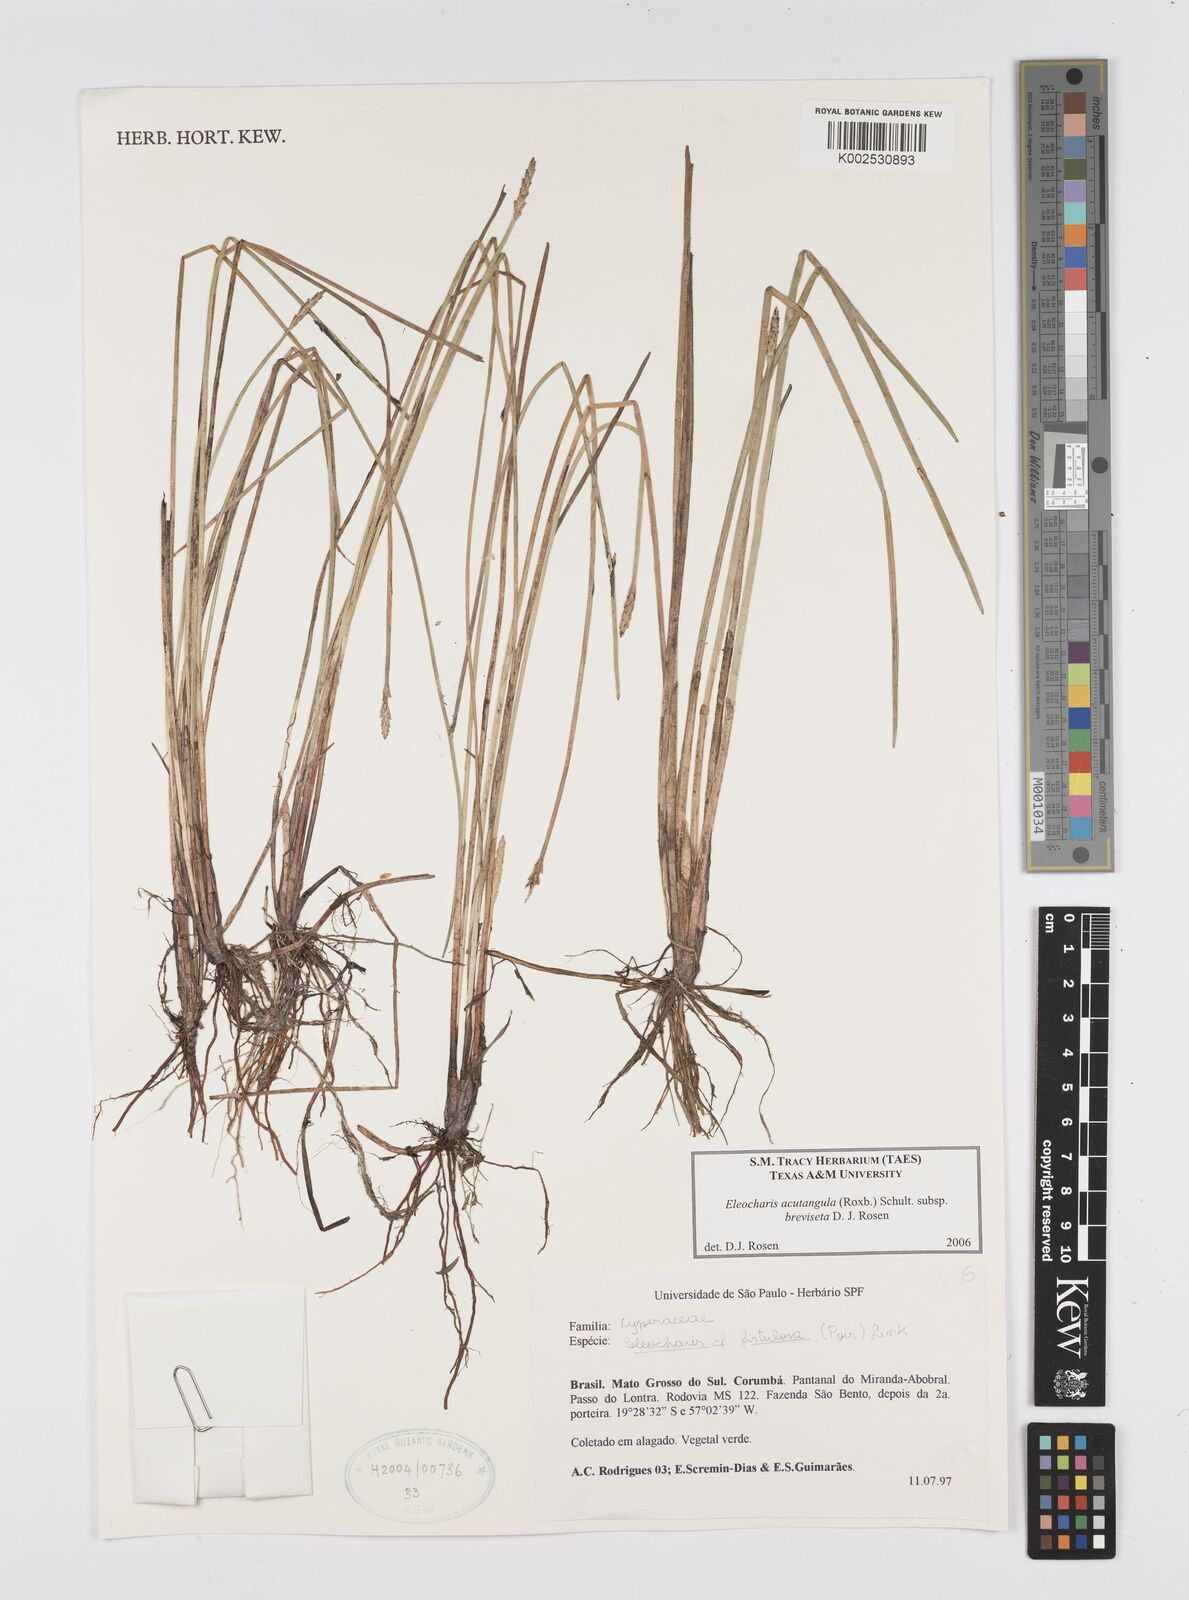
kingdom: Plantae
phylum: Tracheophyta
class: Liliopsida
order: Poales
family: Cyperaceae
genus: Eleocharis
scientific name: Eleocharis acutangula
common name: Acute spikerush
